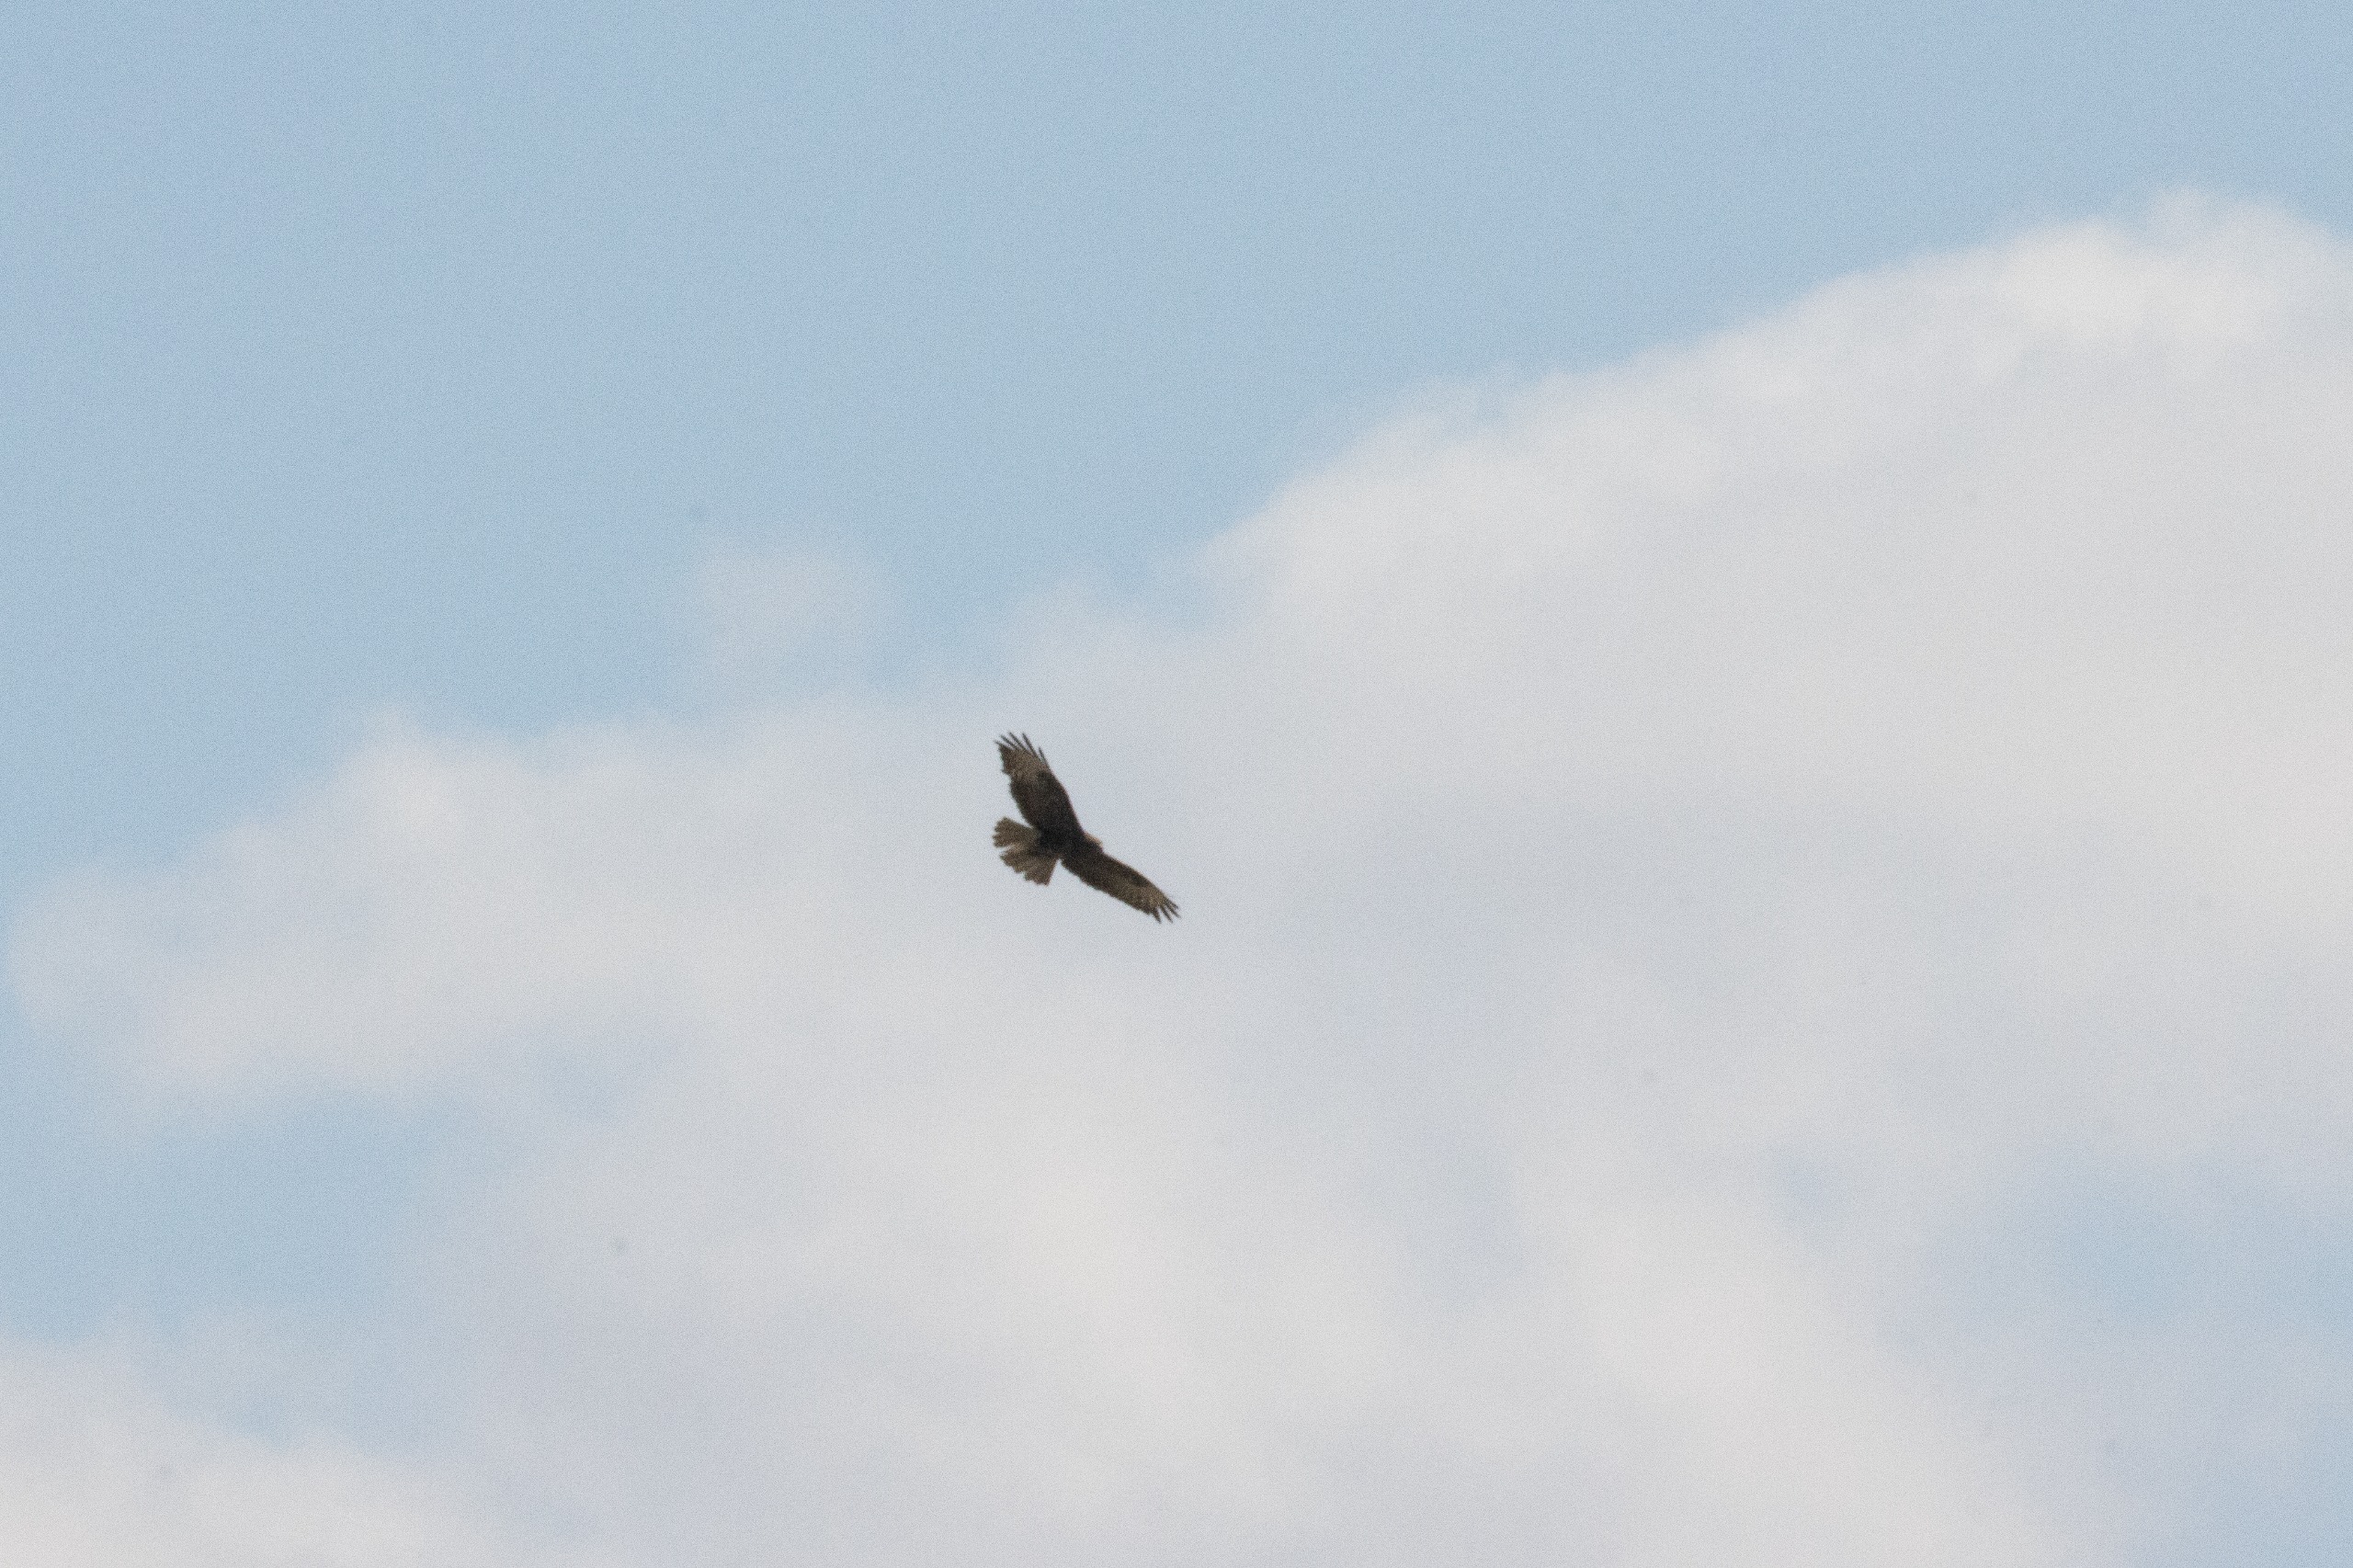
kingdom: Animalia
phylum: Chordata
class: Aves
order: Accipitriformes
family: Accipitridae
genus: Buteo
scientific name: Buteo buteo
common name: Musvåge
